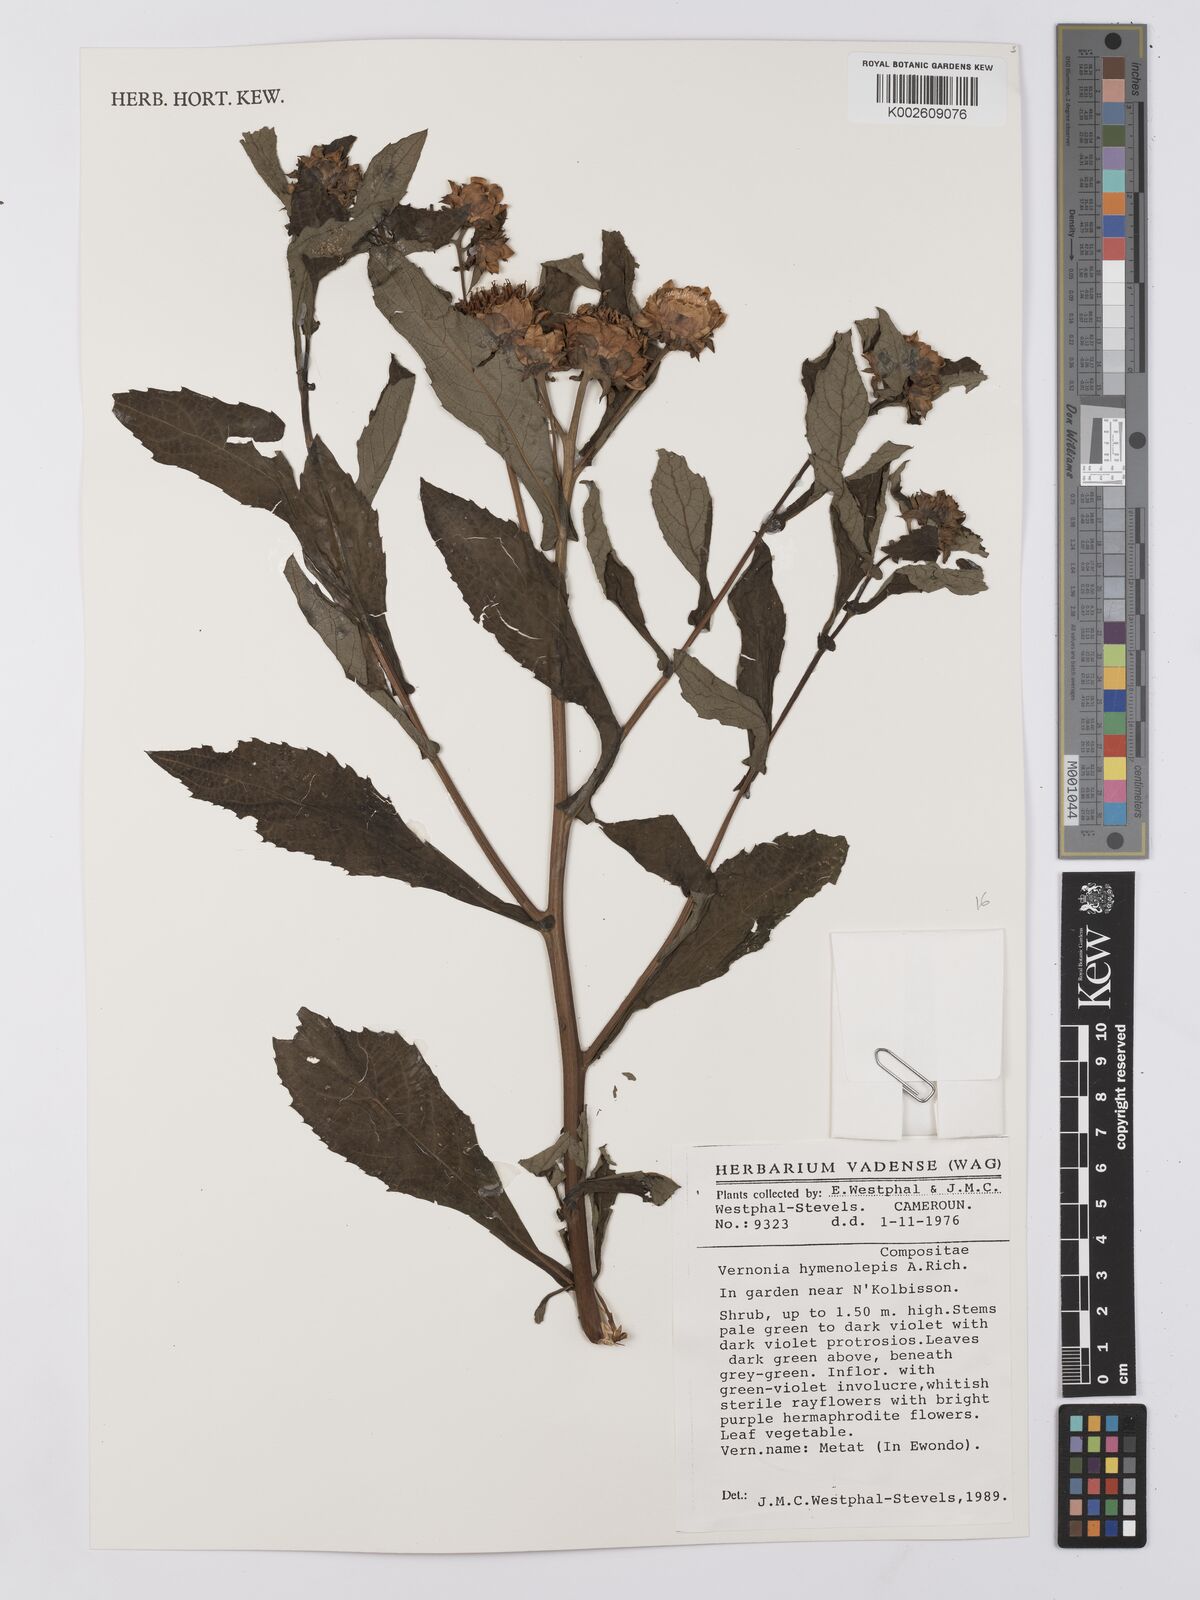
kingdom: Plantae
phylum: Tracheophyta
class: Magnoliopsida
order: Asterales
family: Asteraceae
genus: Baccharoides
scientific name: Baccharoides hymenolepis
